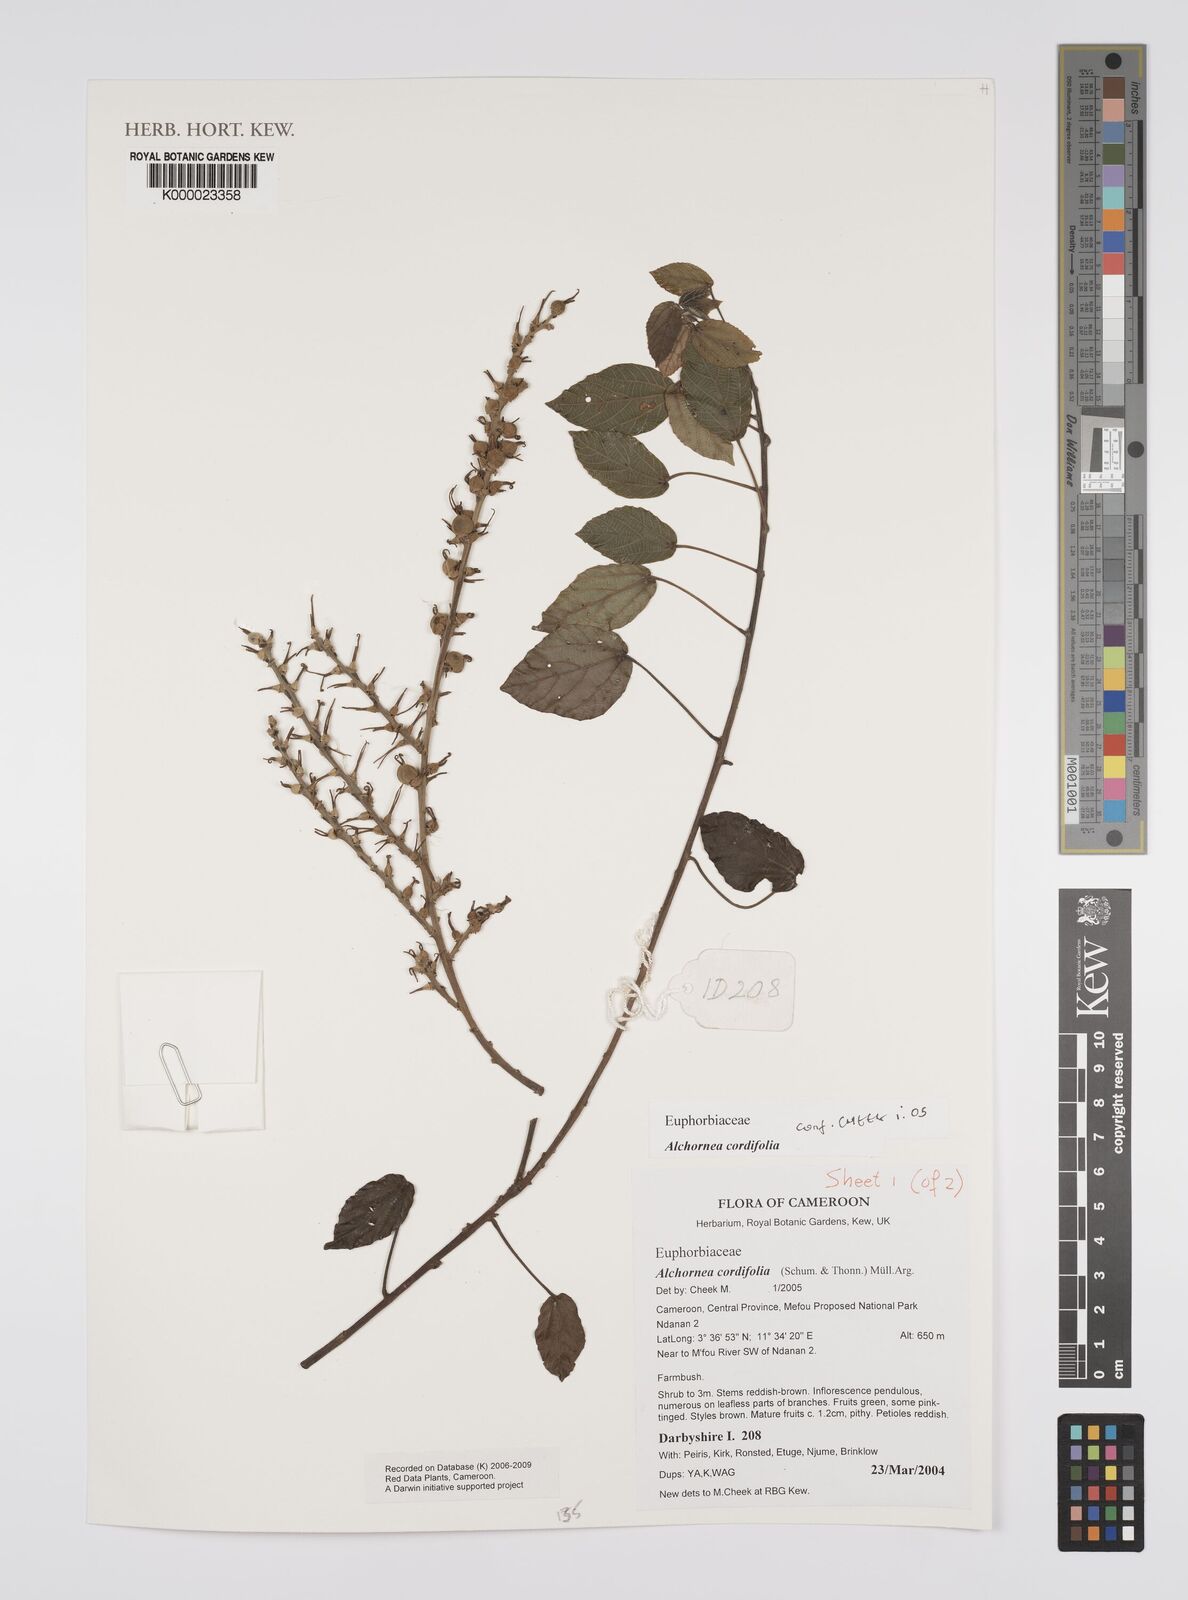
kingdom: Plantae
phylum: Tracheophyta
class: Magnoliopsida
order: Malpighiales
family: Euphorbiaceae
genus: Alchornea
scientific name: Alchornea
